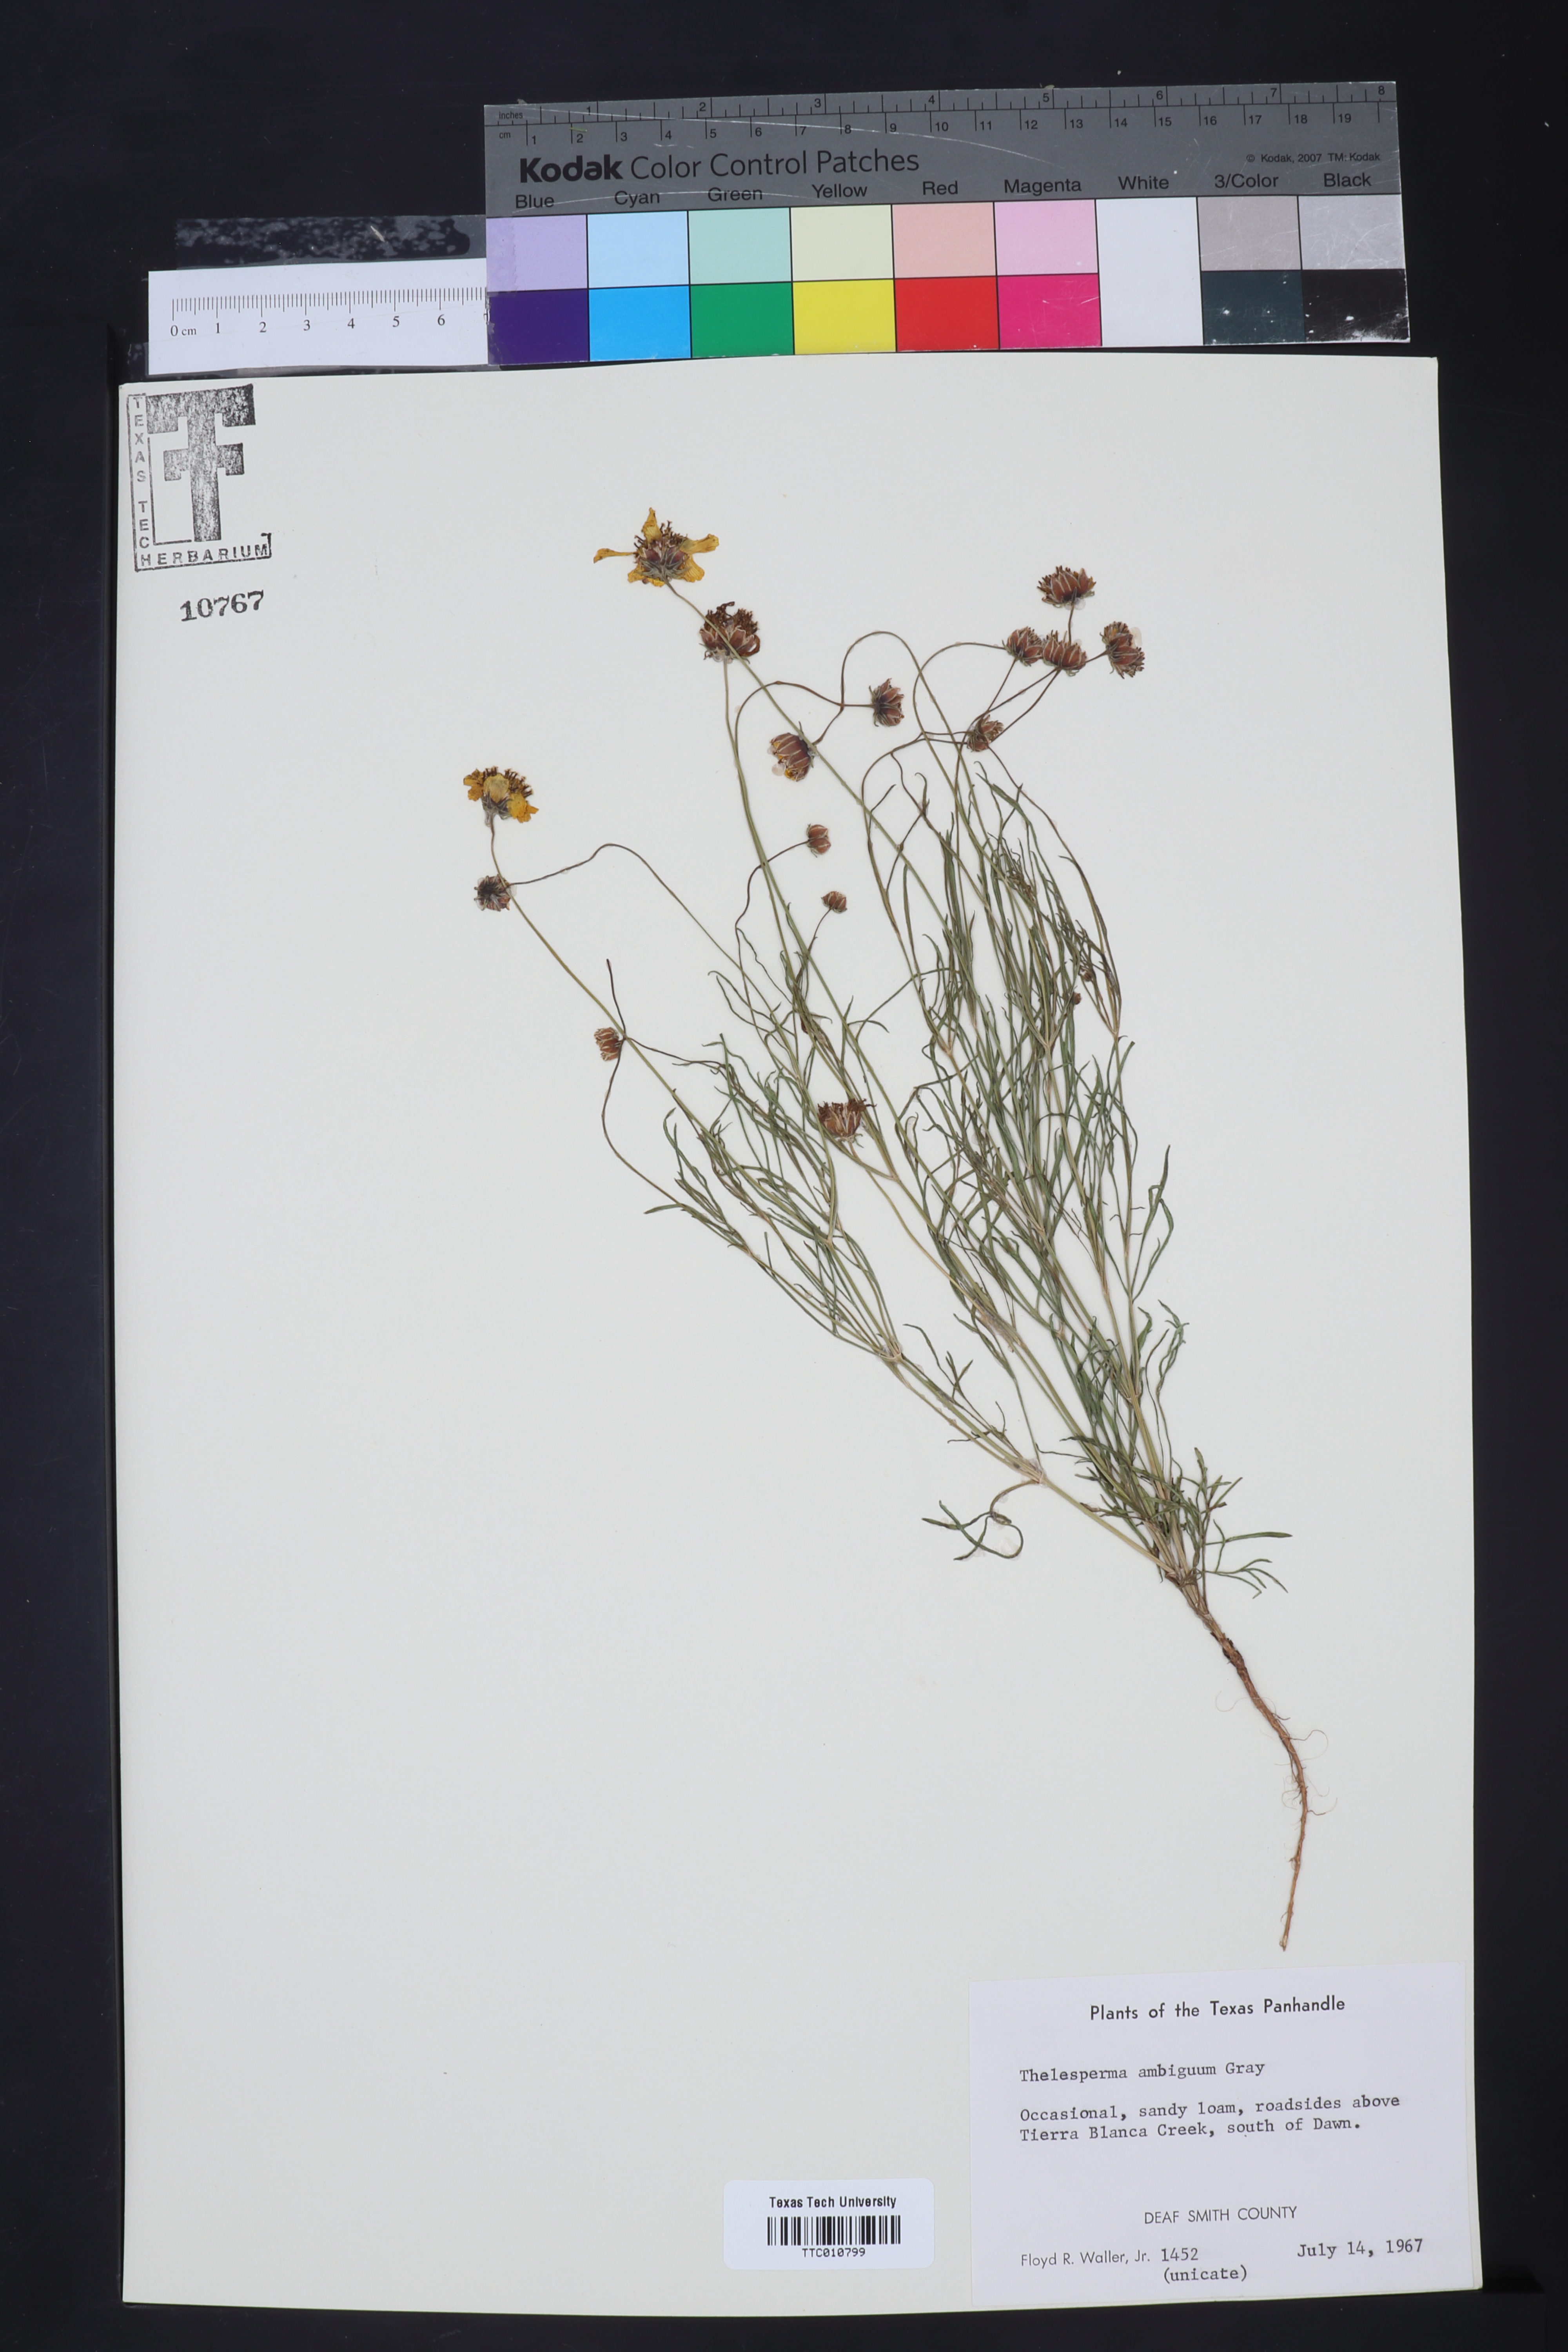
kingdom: Plantae
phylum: Tracheophyta
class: Magnoliopsida
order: Asterales
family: Asteraceae
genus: Thelesperma
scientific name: Thelesperma ambiguum
